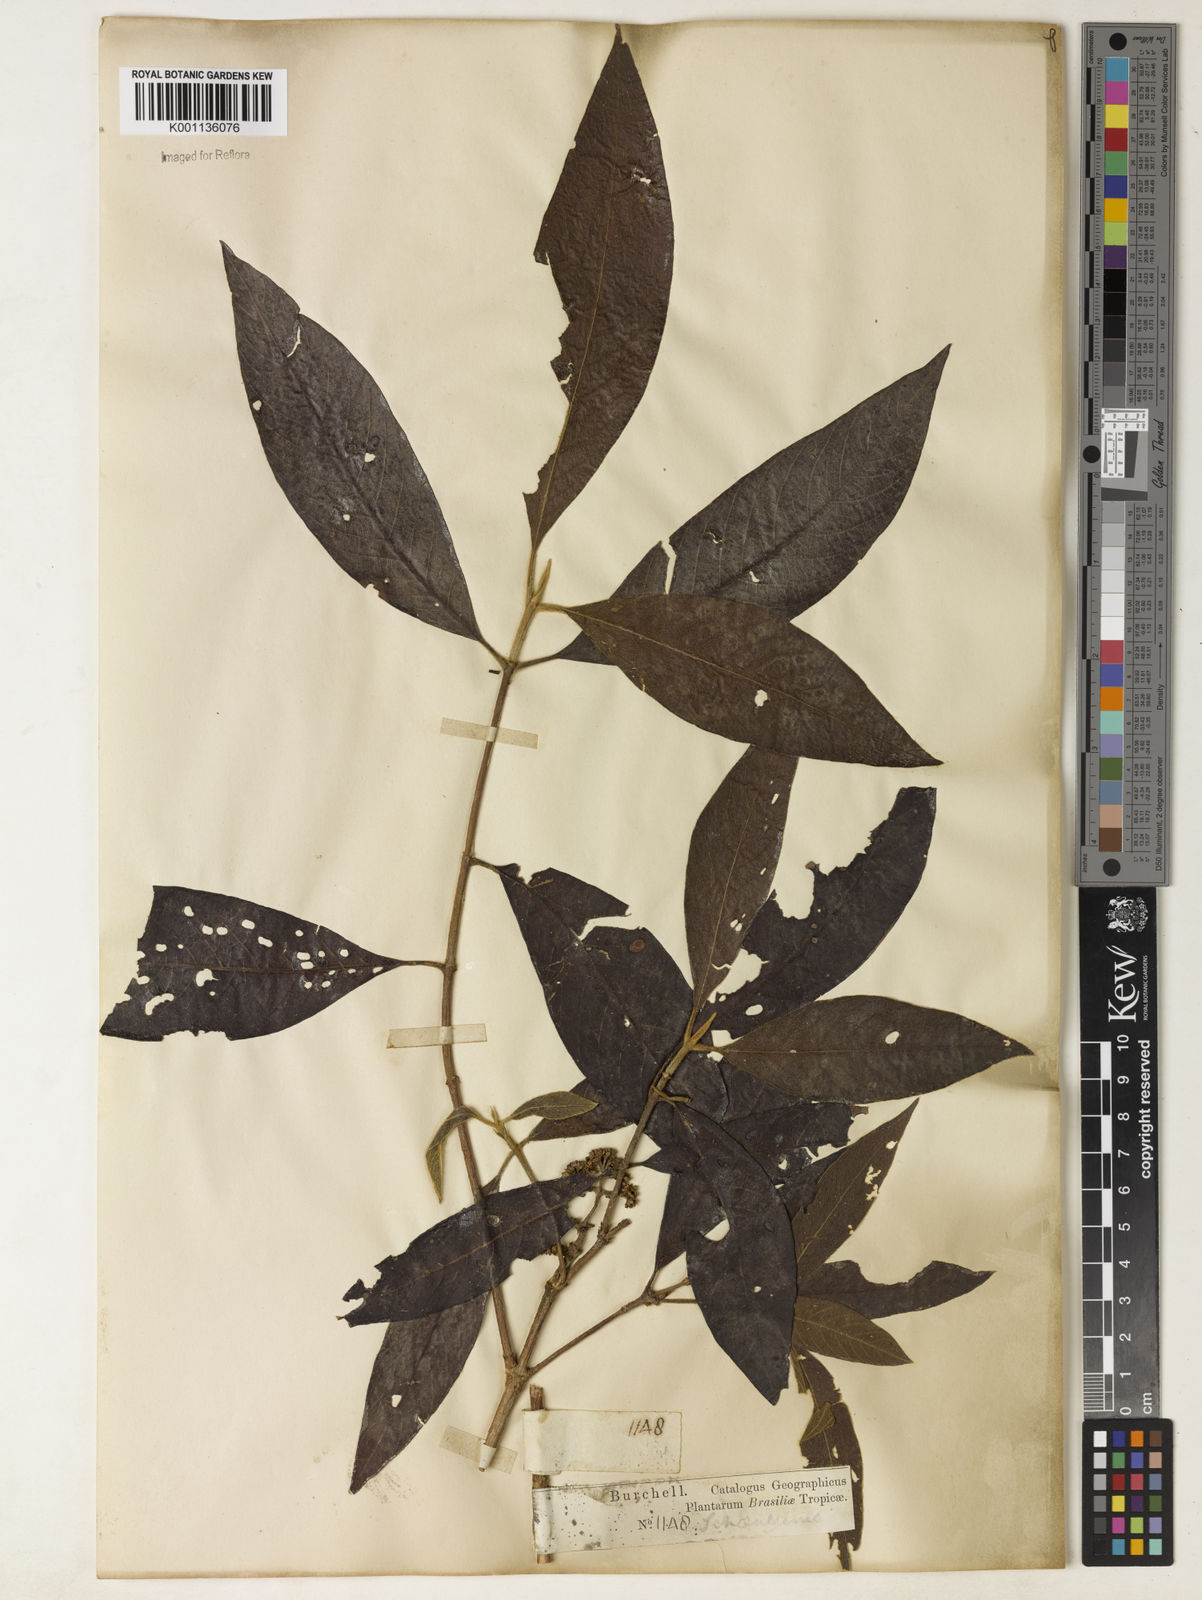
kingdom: Plantae
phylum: Tracheophyta
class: Magnoliopsida
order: Gentianales
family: Rubiaceae
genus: Bathysa
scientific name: Bathysa gymnocarpa
